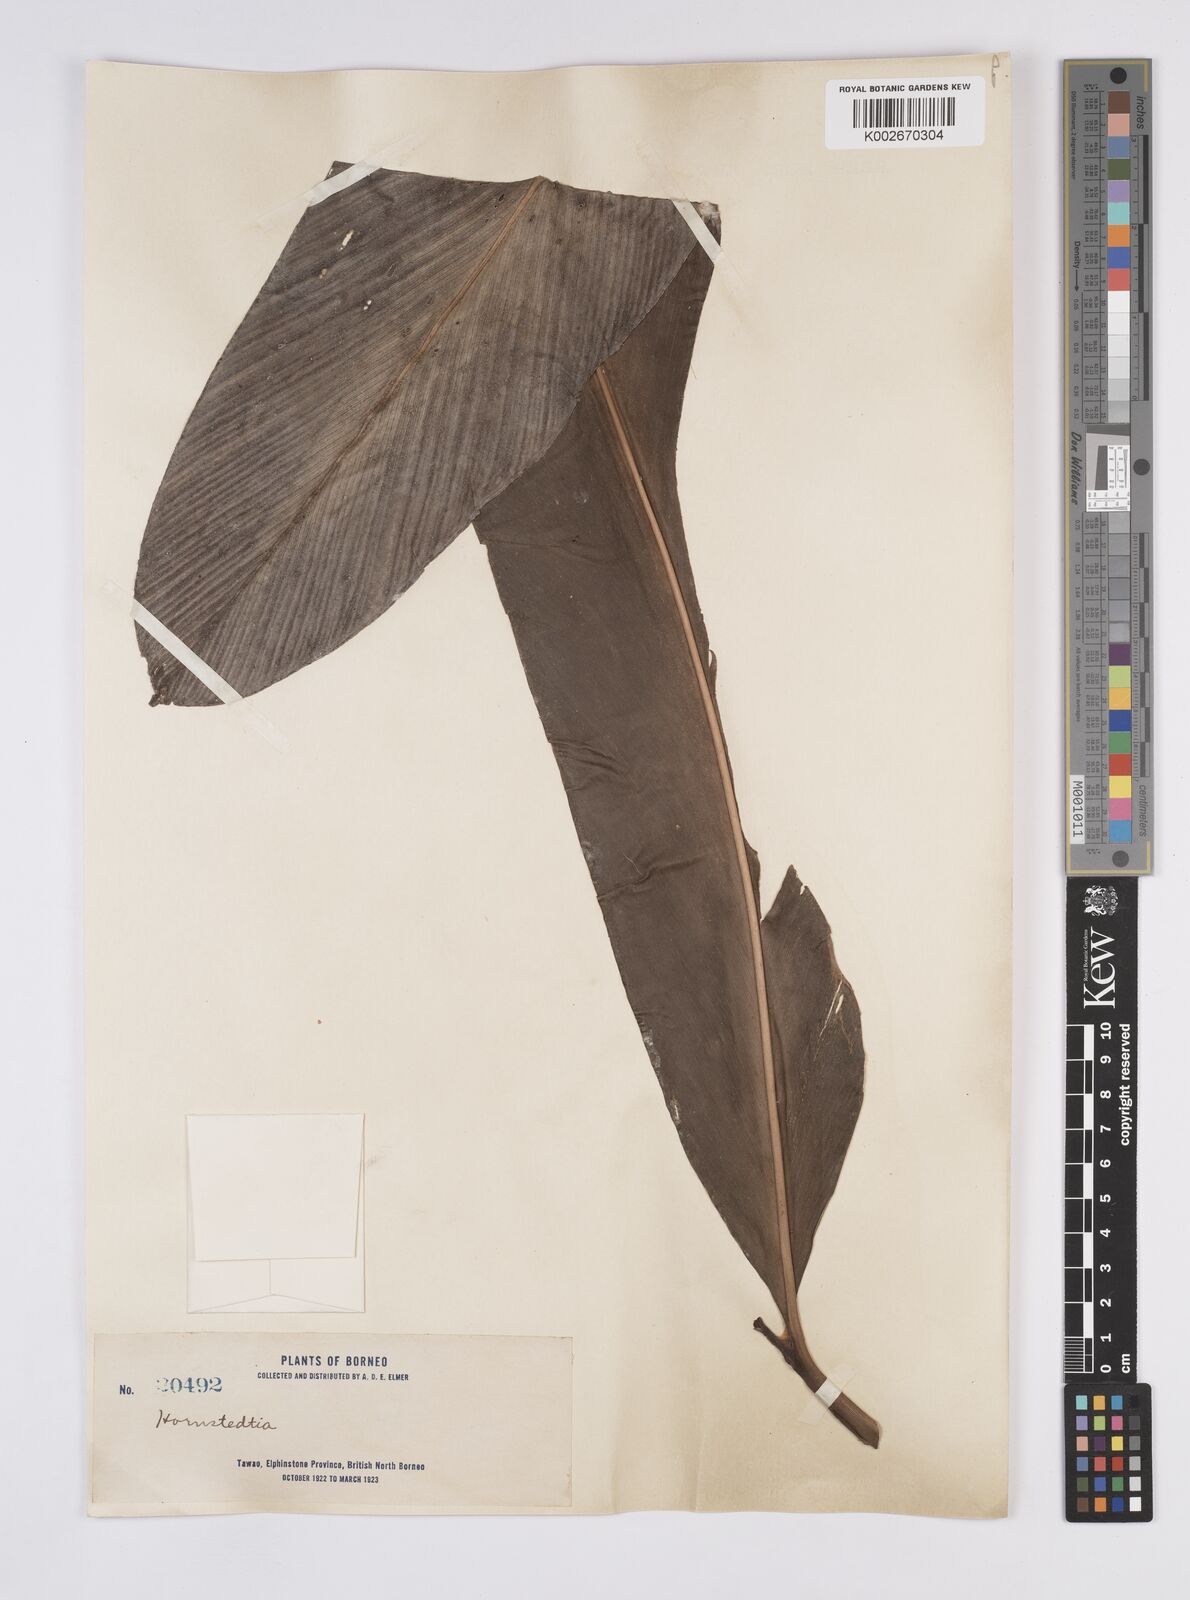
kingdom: Plantae
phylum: Tracheophyta
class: Liliopsida
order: Zingiberales
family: Zingiberaceae
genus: Hornstedtia
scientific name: Hornstedtia
